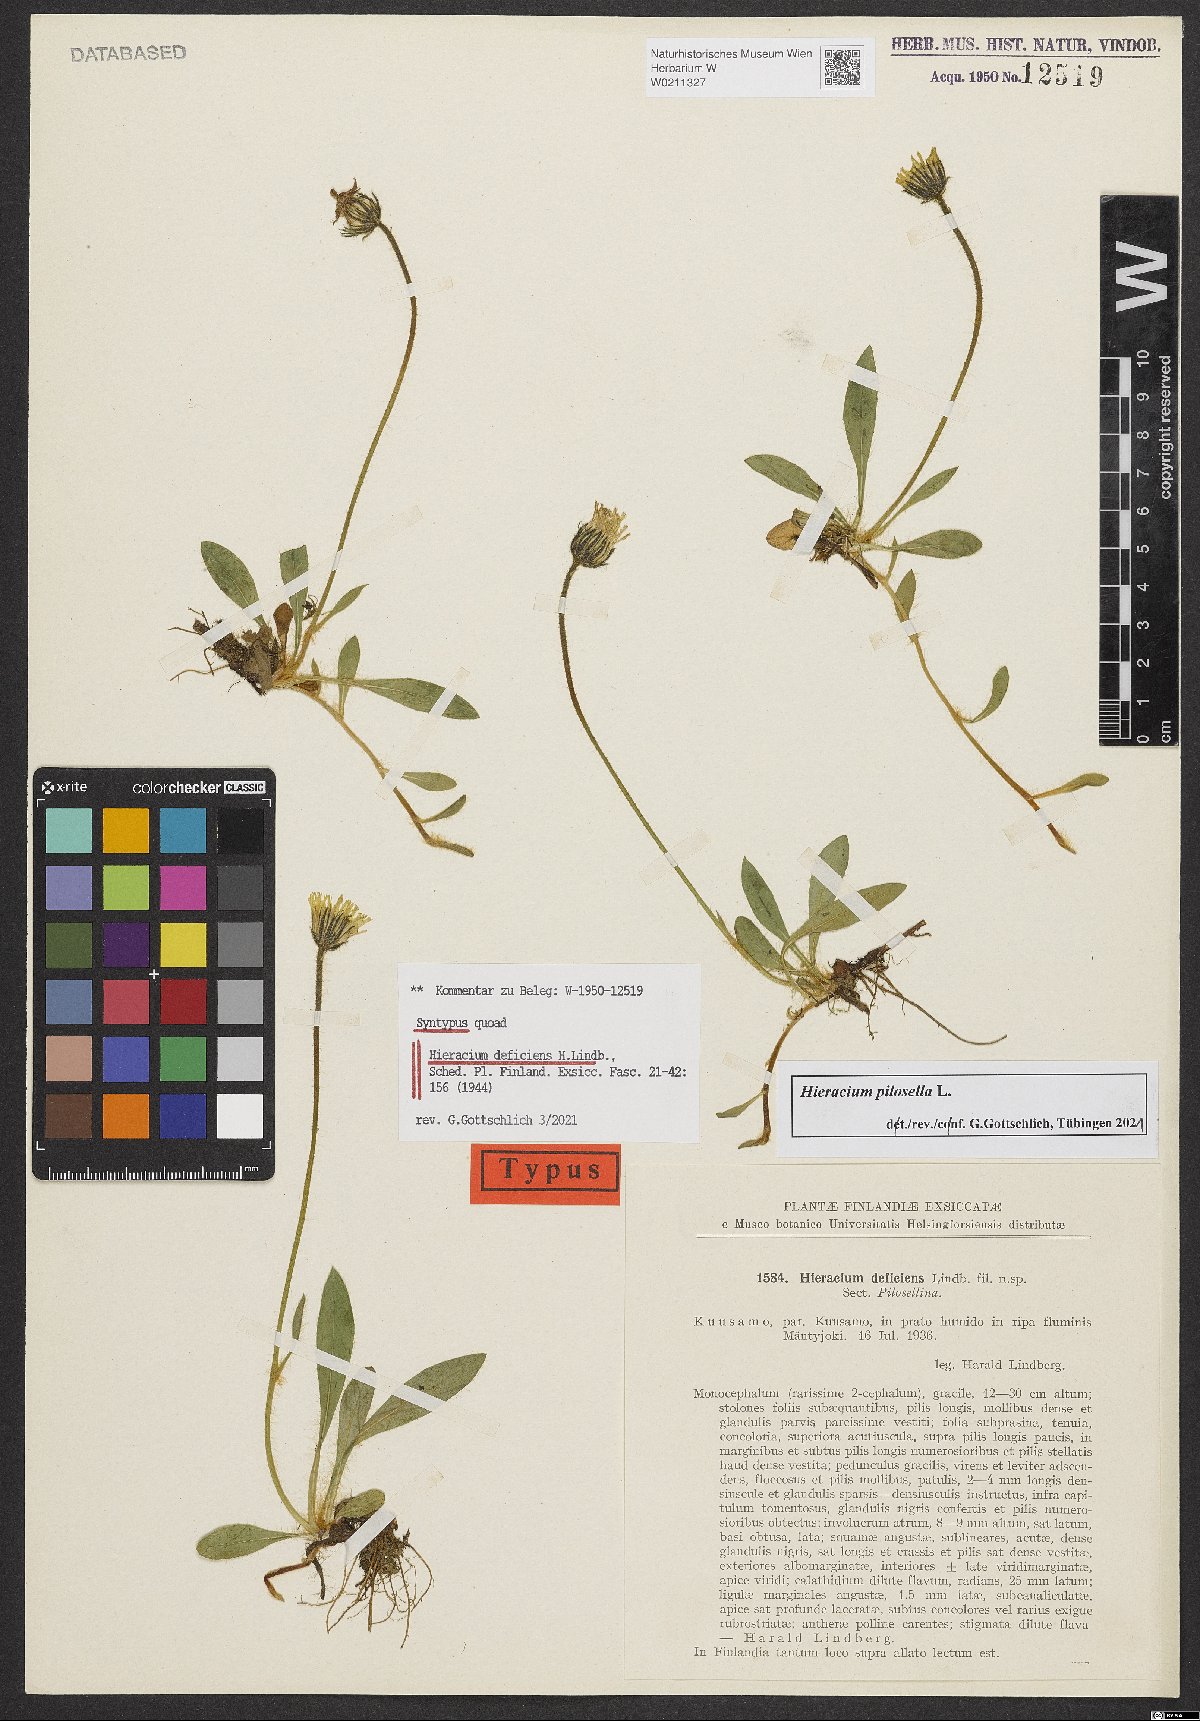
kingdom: Plantae
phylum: Tracheophyta
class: Magnoliopsida
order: Asterales
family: Asteraceae
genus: Hieracium
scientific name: Hieracium deficiens
